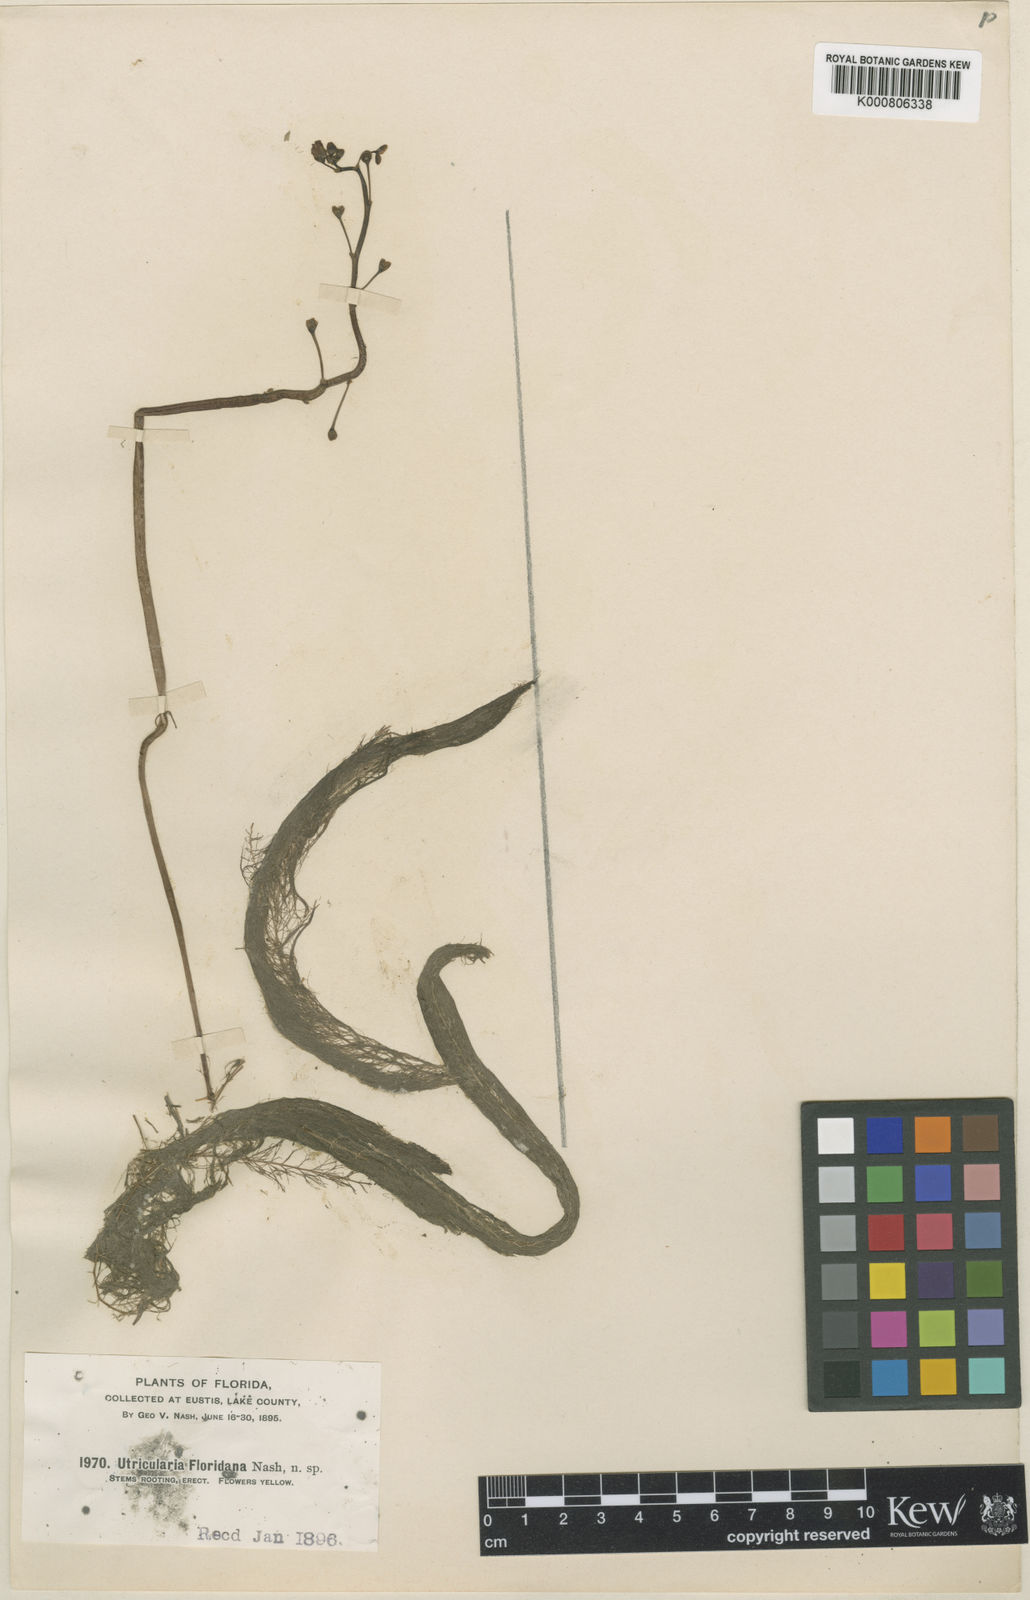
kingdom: Plantae
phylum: Tracheophyta
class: Magnoliopsida
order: Lamiales
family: Lentibulariaceae
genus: Utricularia
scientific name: Utricularia floridana
